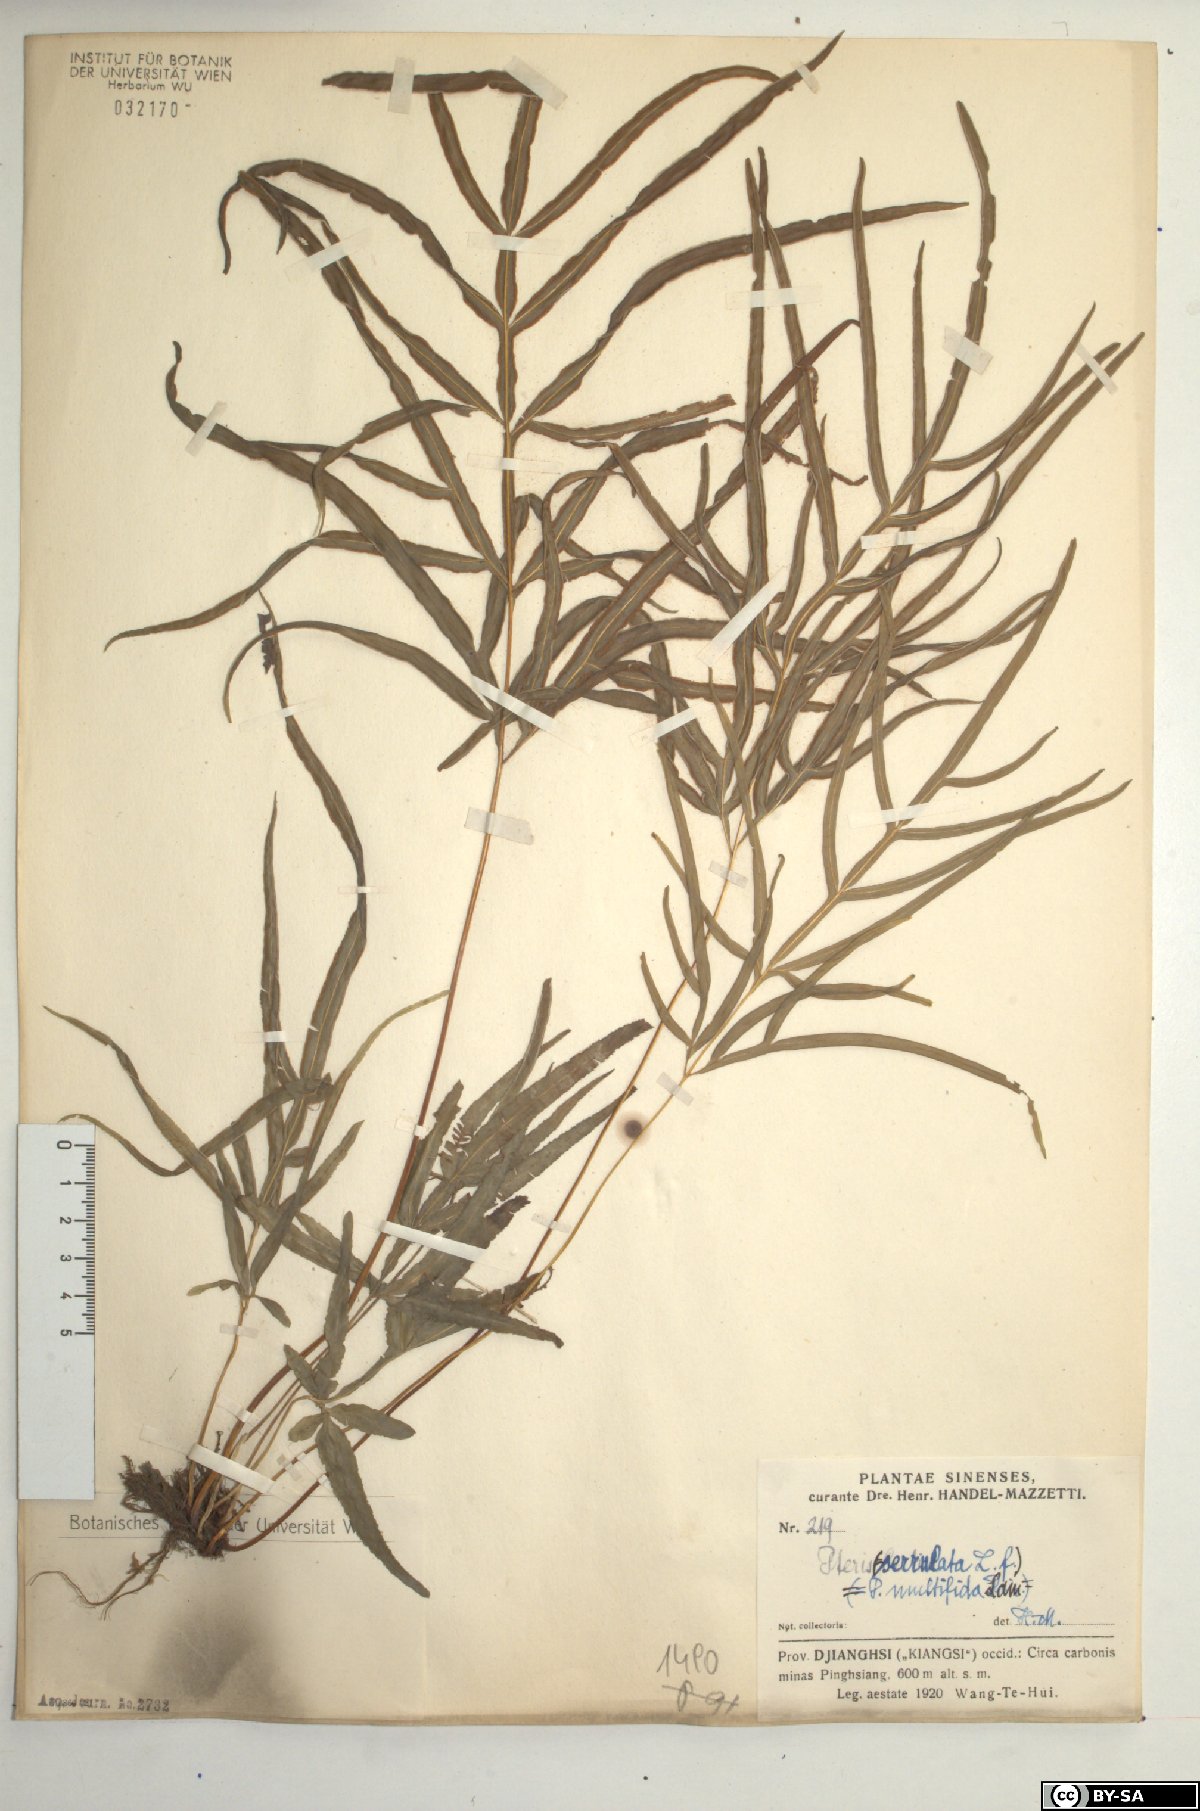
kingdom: Plantae
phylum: Tracheophyta
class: Polypodiopsida
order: Polypodiales
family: Pteridaceae
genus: Pteris
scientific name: Pteris multifida
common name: Spider brake
